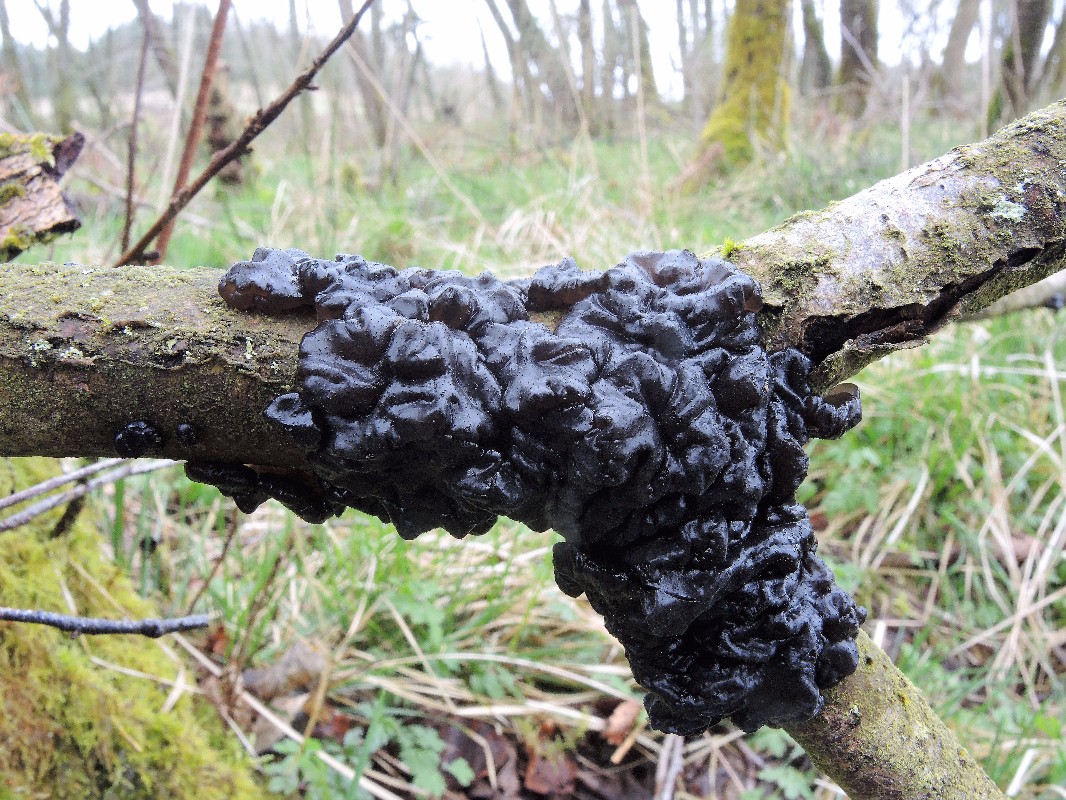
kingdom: Fungi
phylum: Basidiomycota
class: Agaricomycetes
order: Auriculariales
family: Auriculariaceae
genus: Exidia
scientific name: Exidia nigricans
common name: almindelig bævretop
